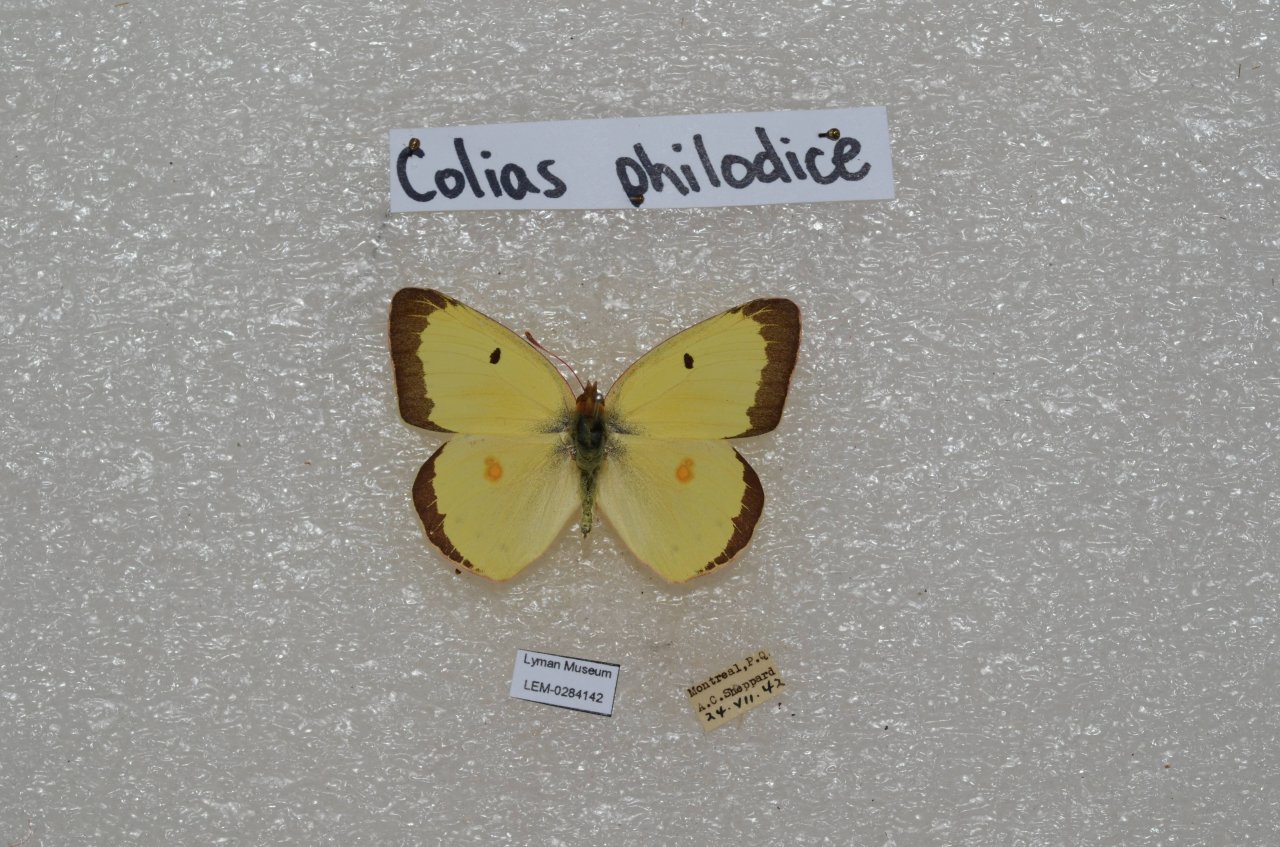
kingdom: Animalia
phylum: Arthropoda
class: Insecta
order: Lepidoptera
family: Pieridae
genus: Colias
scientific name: Colias philodice
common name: Clouded Sulphur
